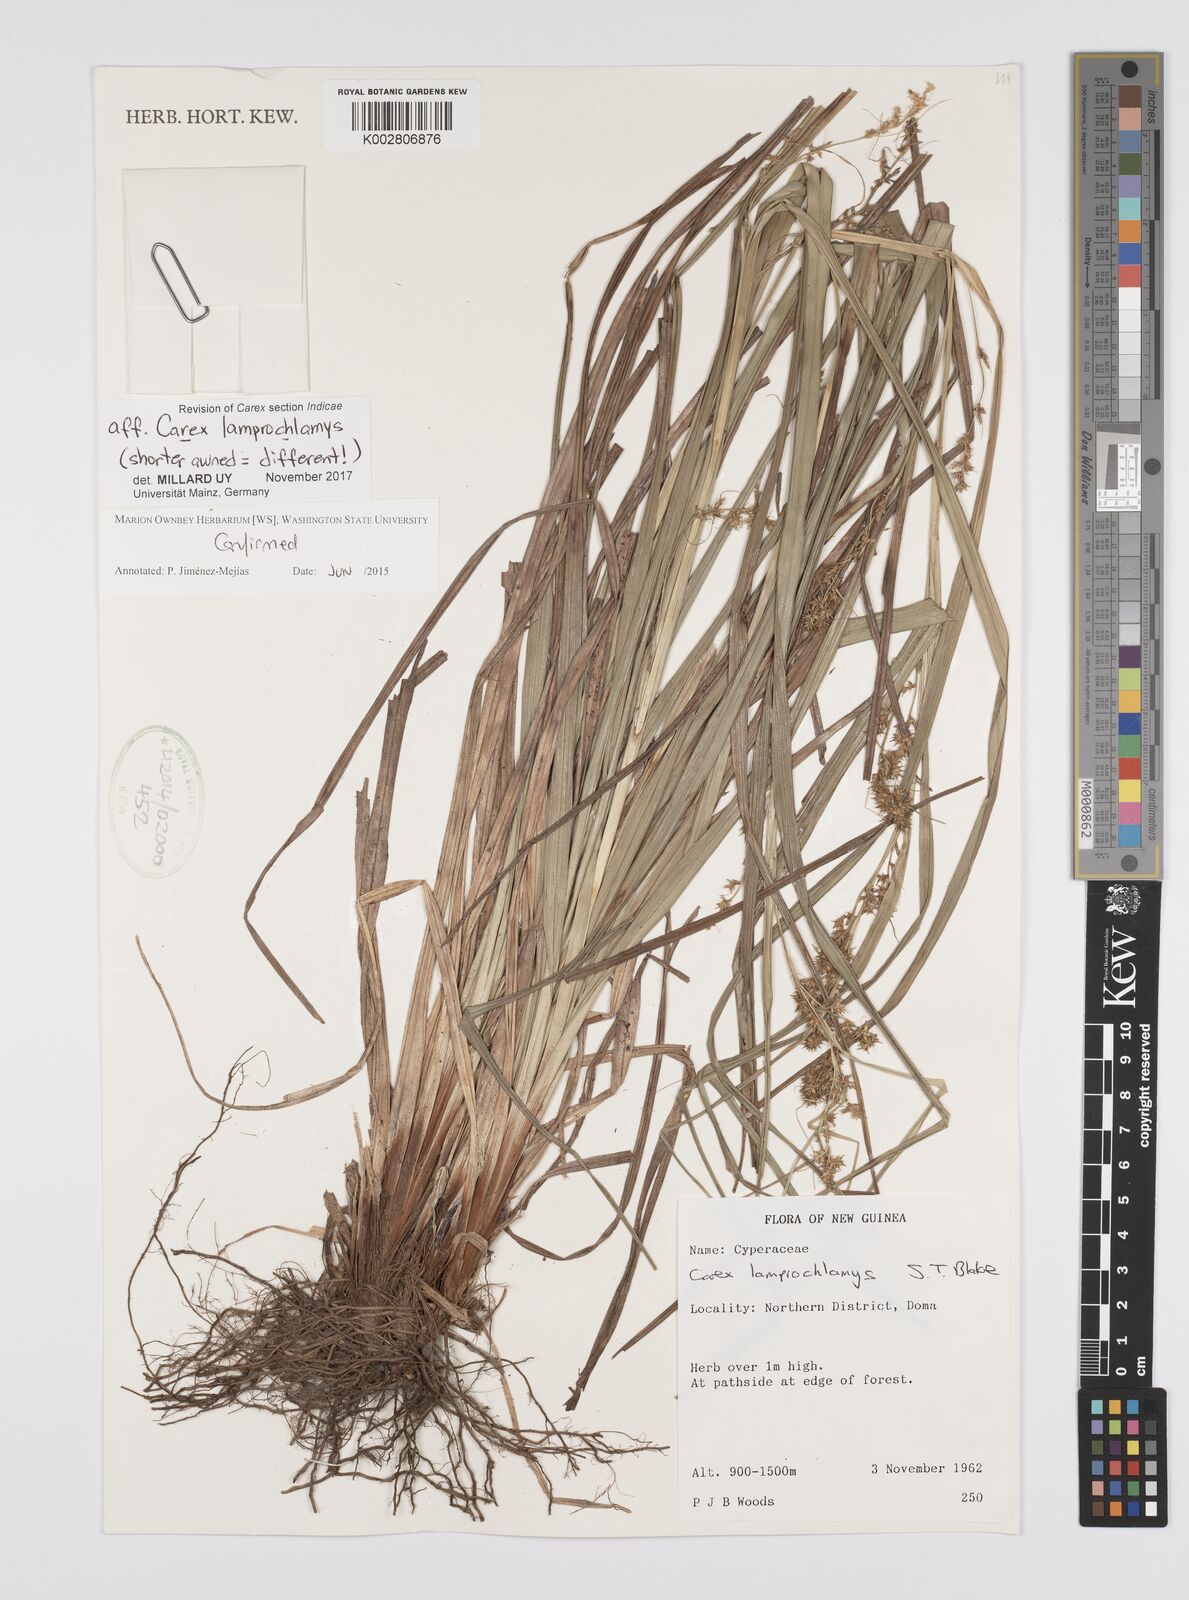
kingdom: Plantae
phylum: Tracheophyta
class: Liliopsida
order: Poales
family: Cyperaceae
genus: Carex
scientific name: Carex lamprochlamys
